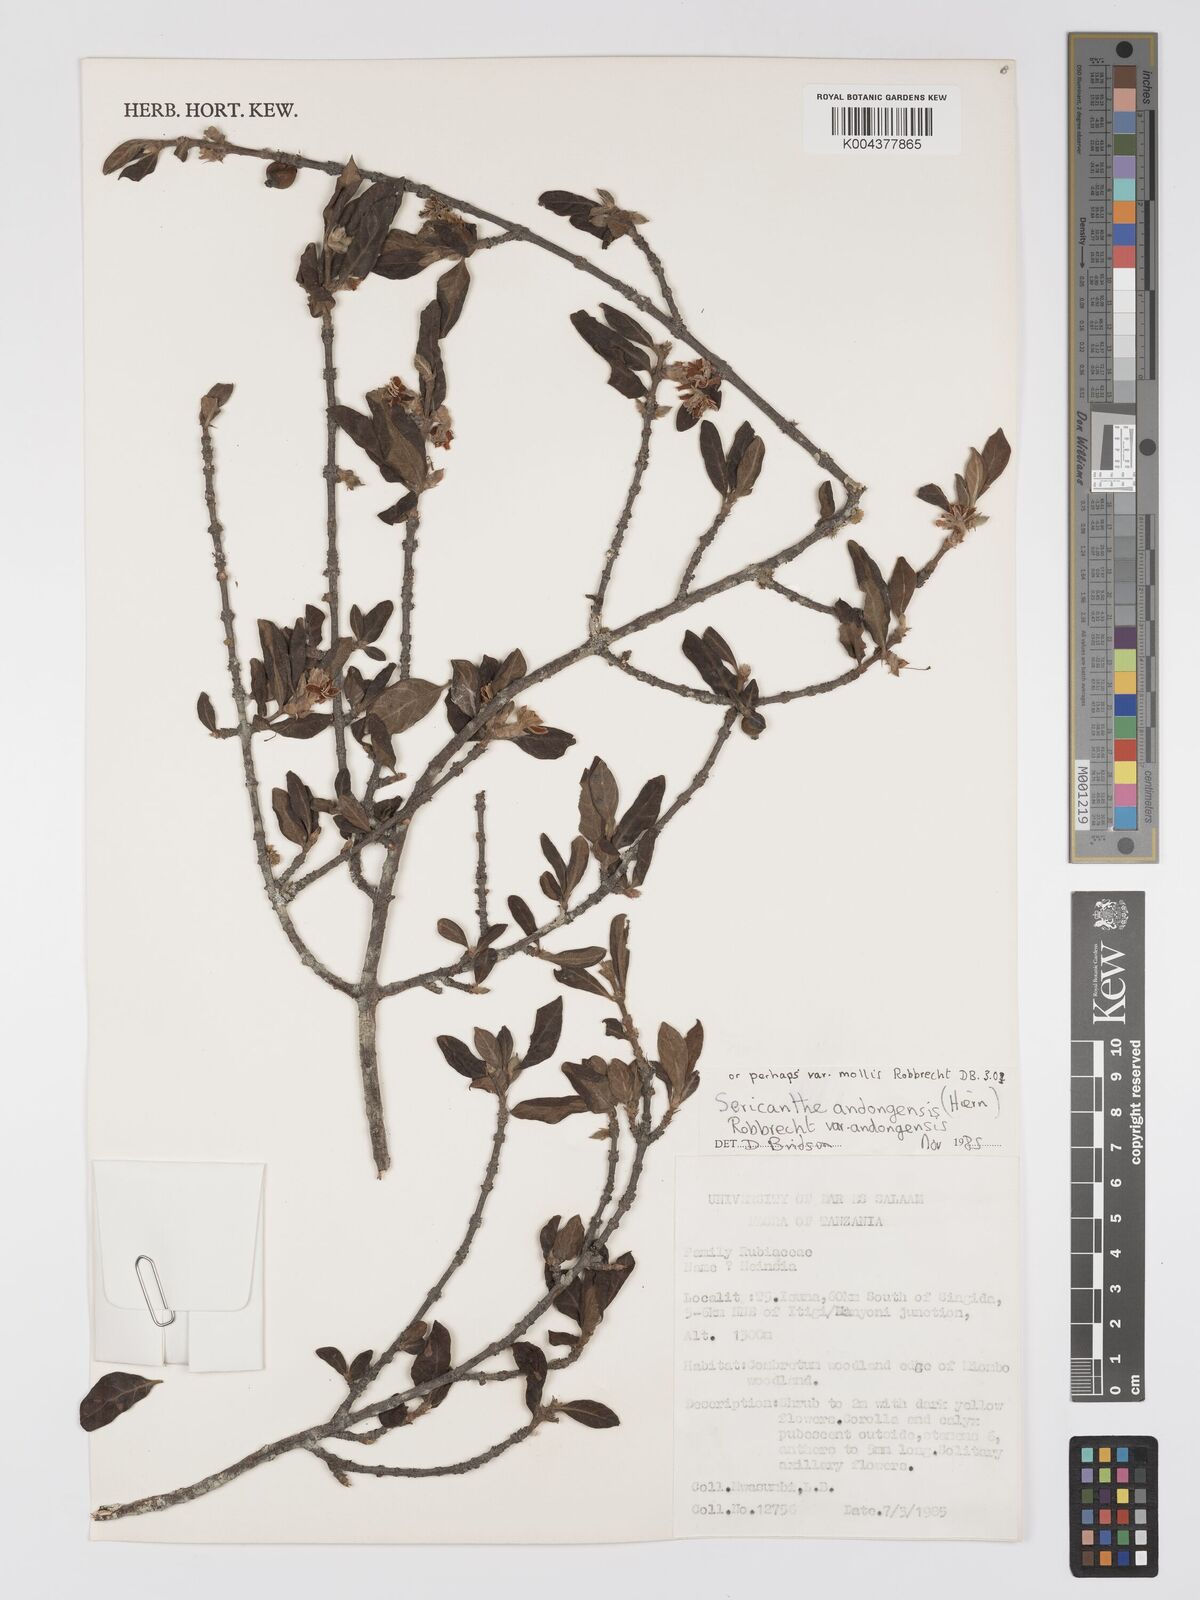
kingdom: Plantae
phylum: Tracheophyta
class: Magnoliopsida
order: Gentianales
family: Rubiaceae
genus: Sericanthe
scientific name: Sericanthe andongensis
